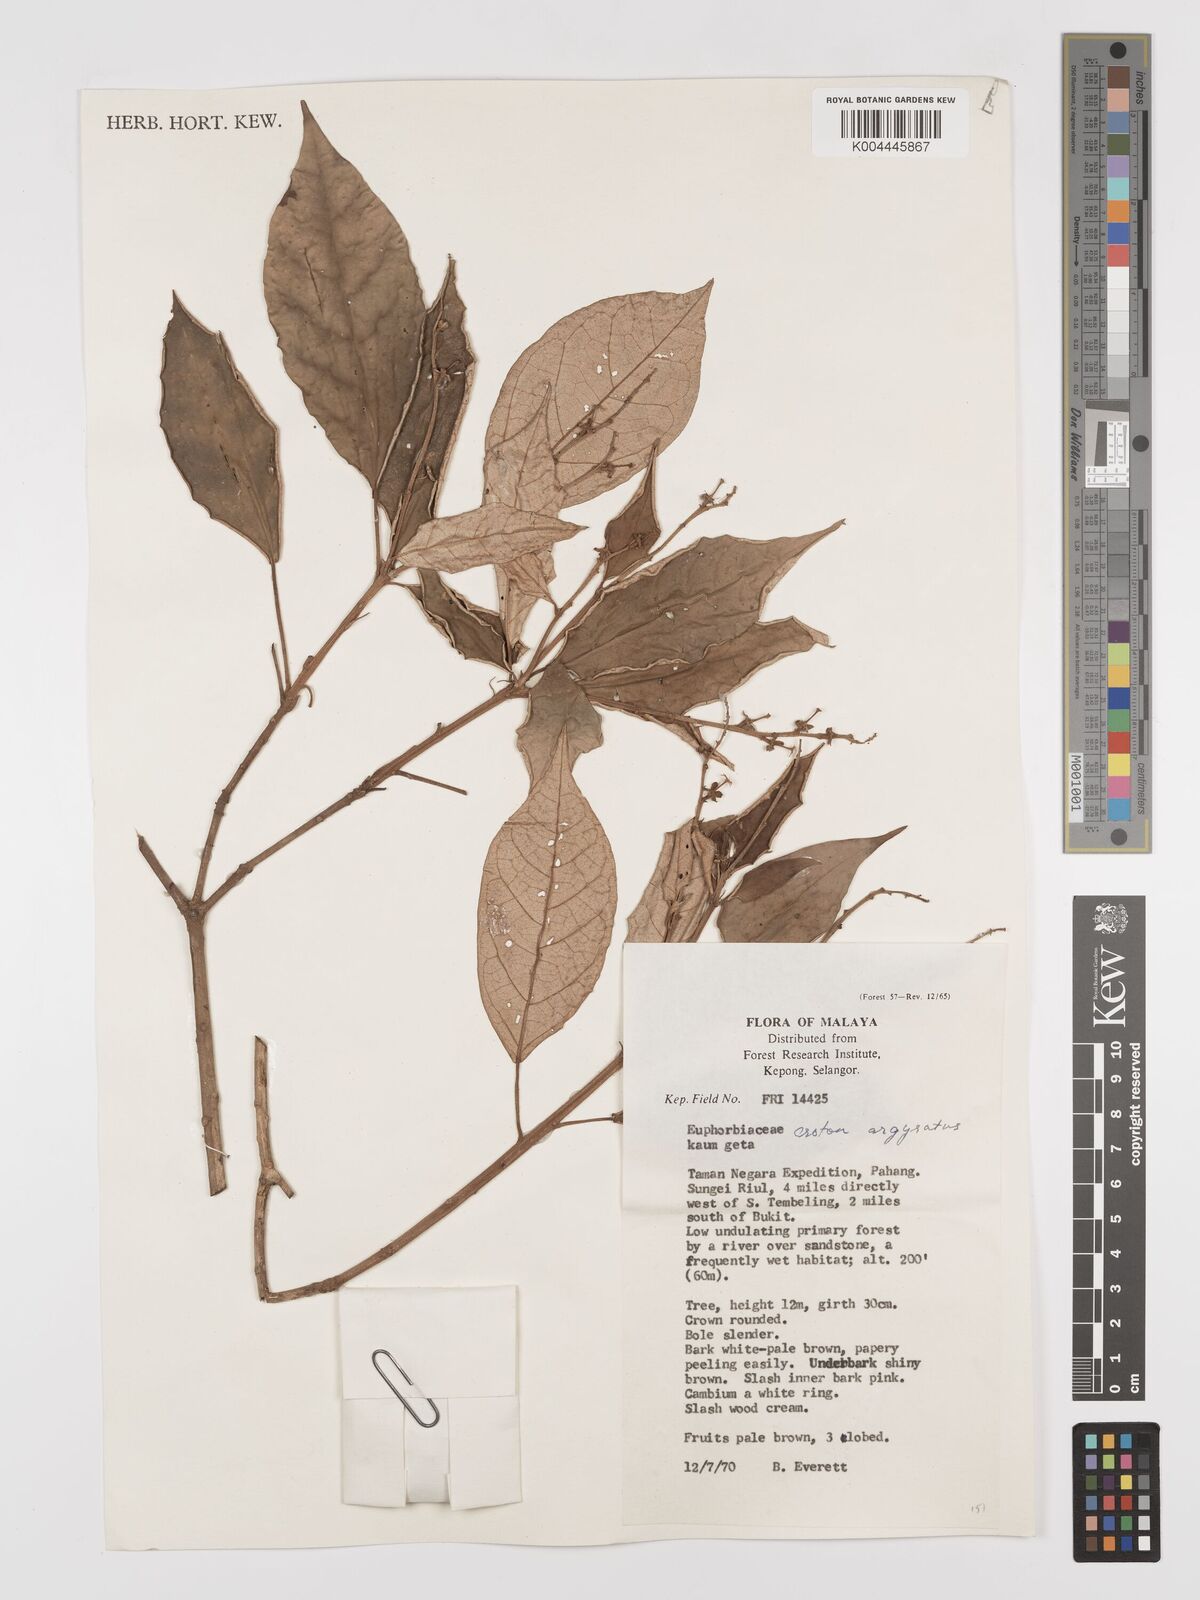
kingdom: Plantae
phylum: Tracheophyta
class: Magnoliopsida
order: Malpighiales
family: Euphorbiaceae
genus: Croton
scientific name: Croton argyratus
